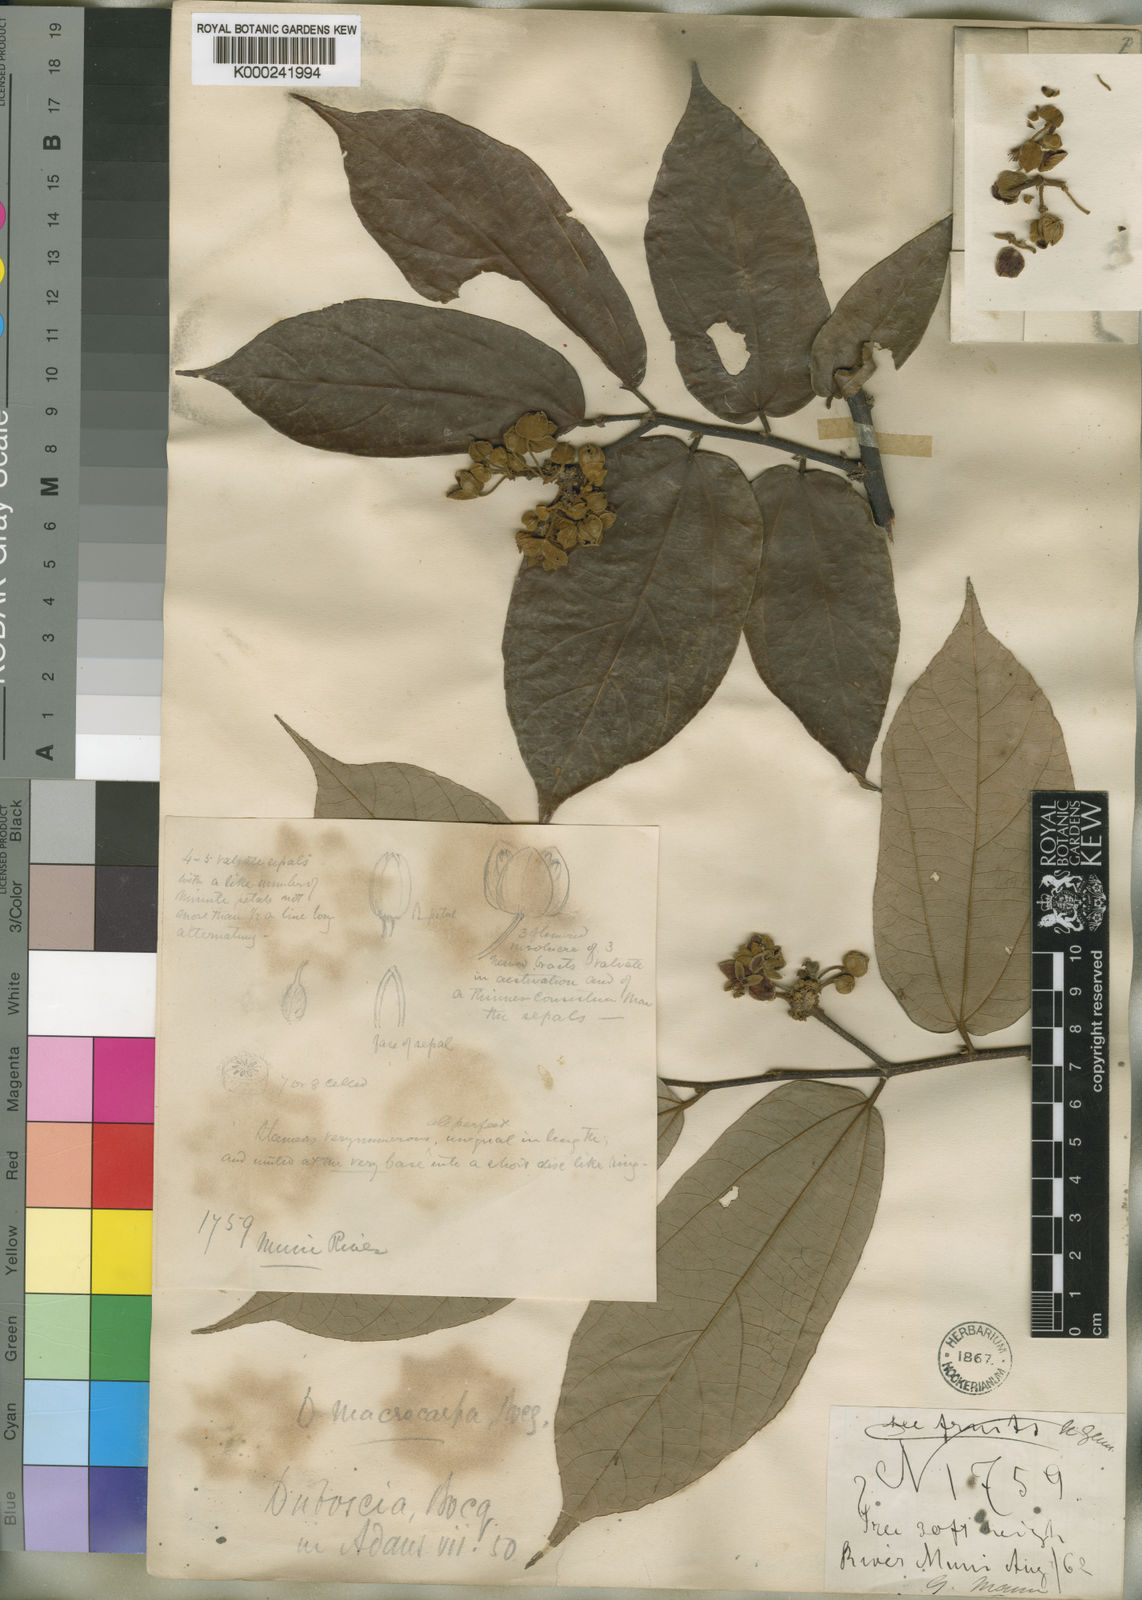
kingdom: Plantae
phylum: Tracheophyta
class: Magnoliopsida
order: Malvales
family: Malvaceae
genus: Duboscia
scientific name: Duboscia macrocarpa
